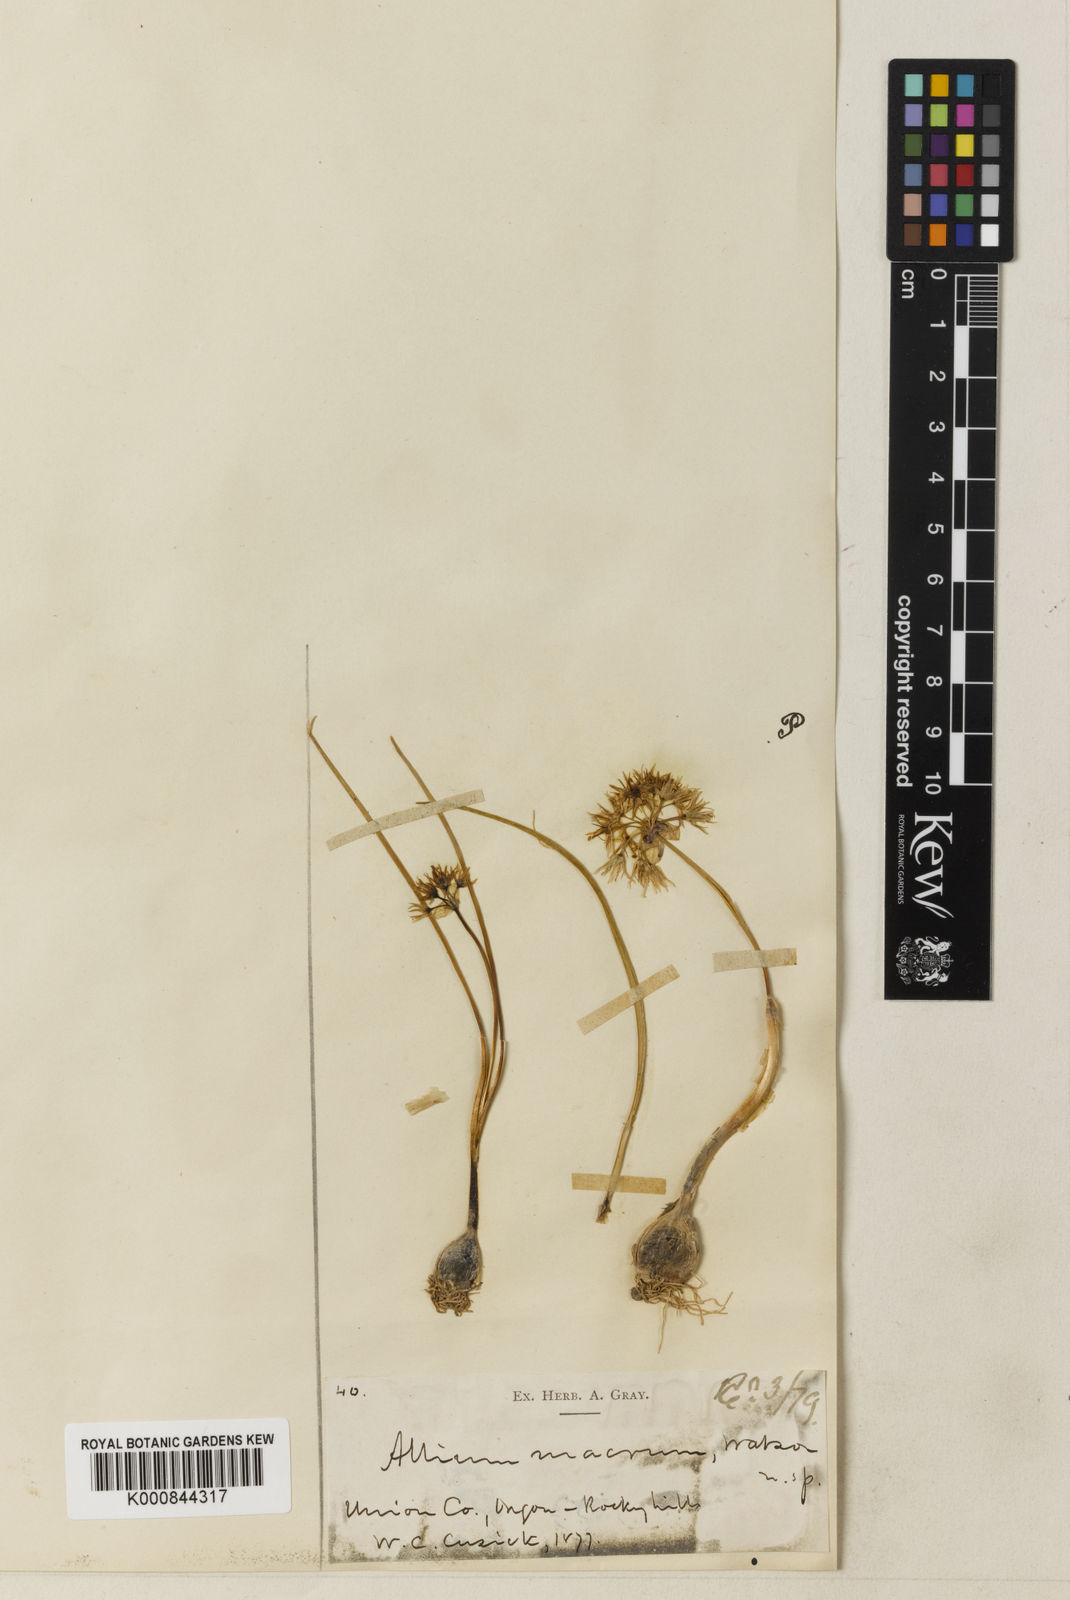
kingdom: Plantae
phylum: Tracheophyta
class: Liliopsida
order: Asparagales
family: Amaryllidaceae
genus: Allium
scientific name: Allium macrum
